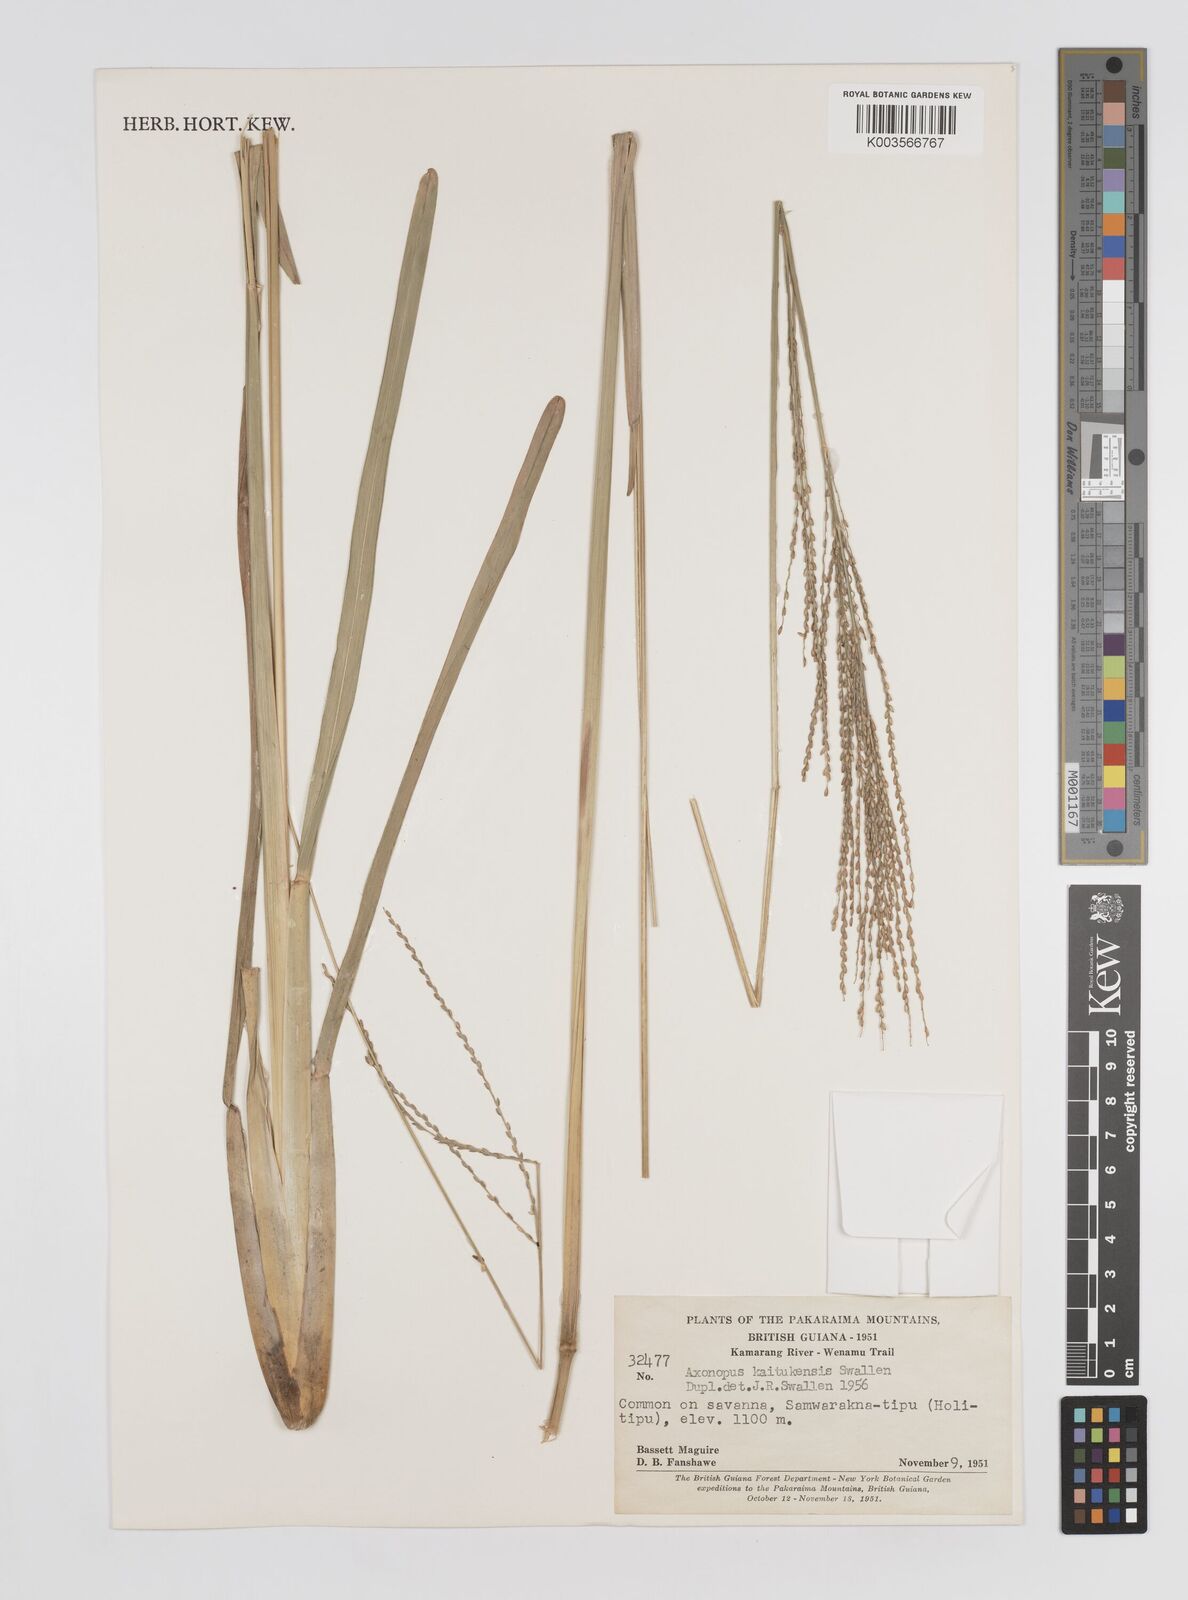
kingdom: Plantae
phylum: Tracheophyta
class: Liliopsida
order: Poales
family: Poaceae
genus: Axonopus
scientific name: Axonopus flabelliformis
